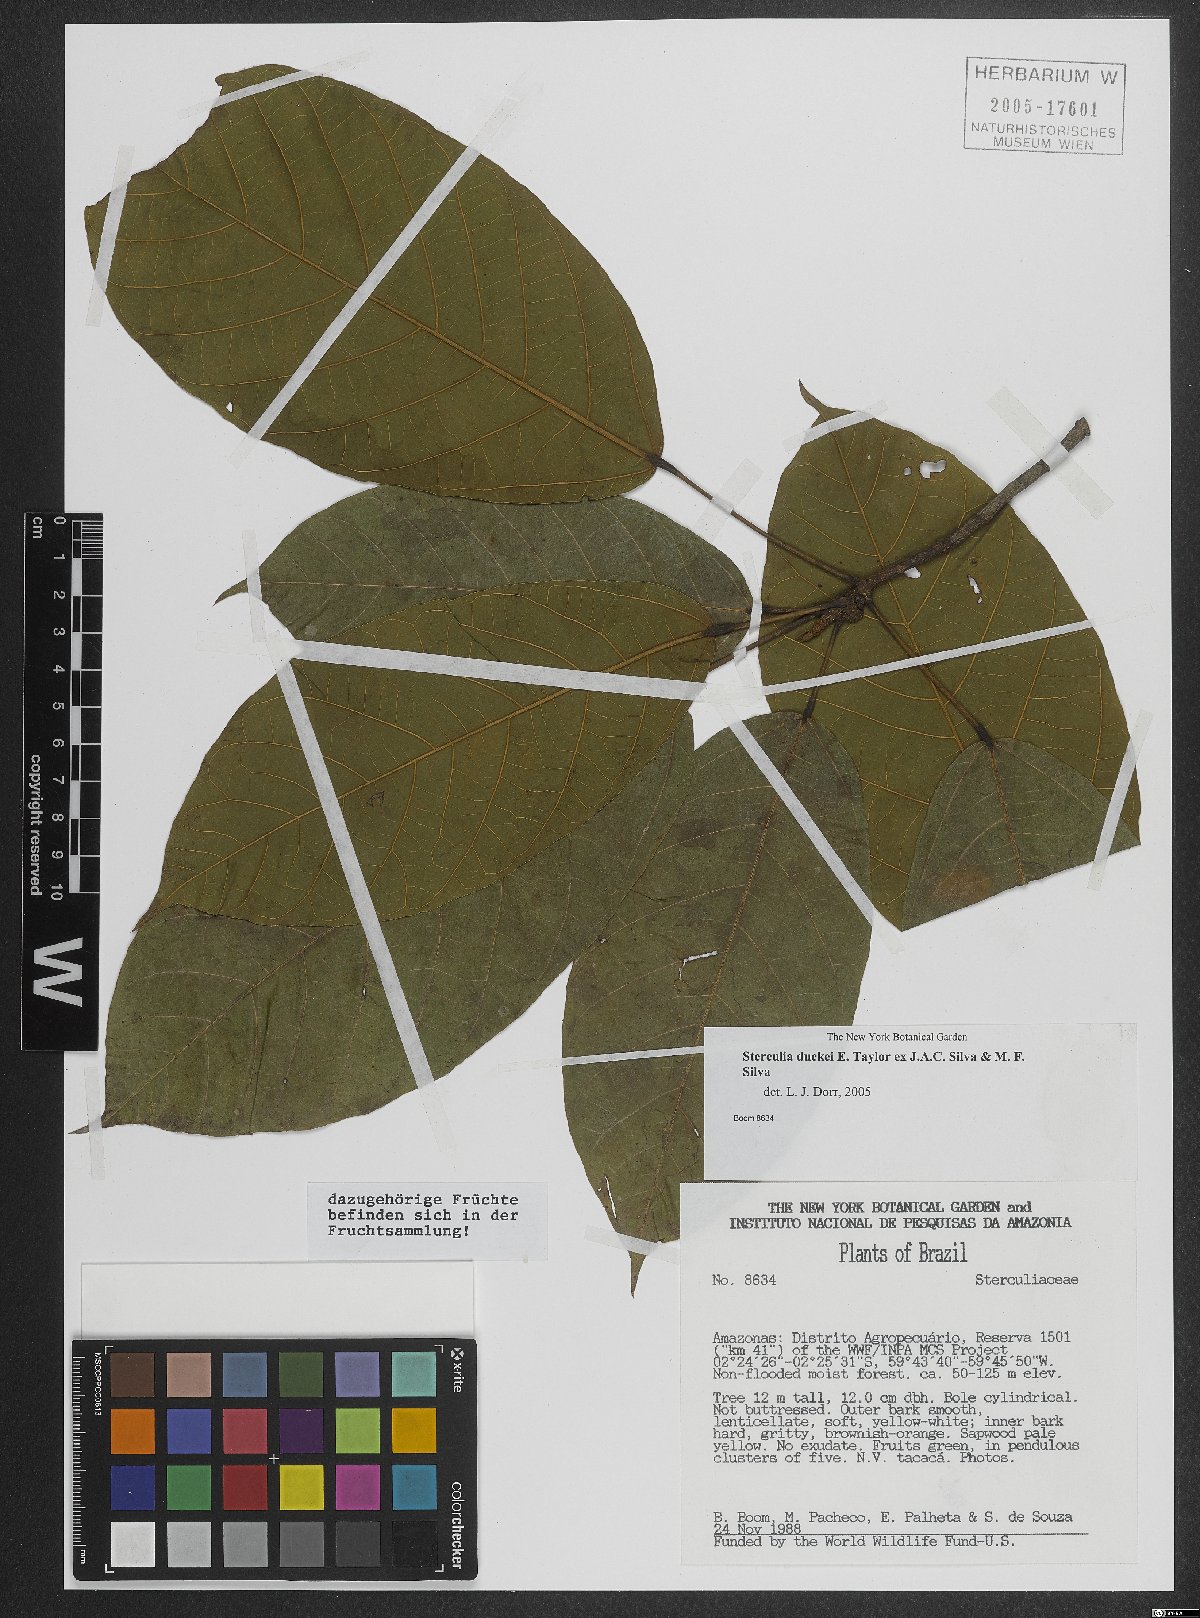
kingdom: Plantae
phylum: Tracheophyta
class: Magnoliopsida
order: Malvales
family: Malvaceae
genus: Sterculia
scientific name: Sterculia duckei
